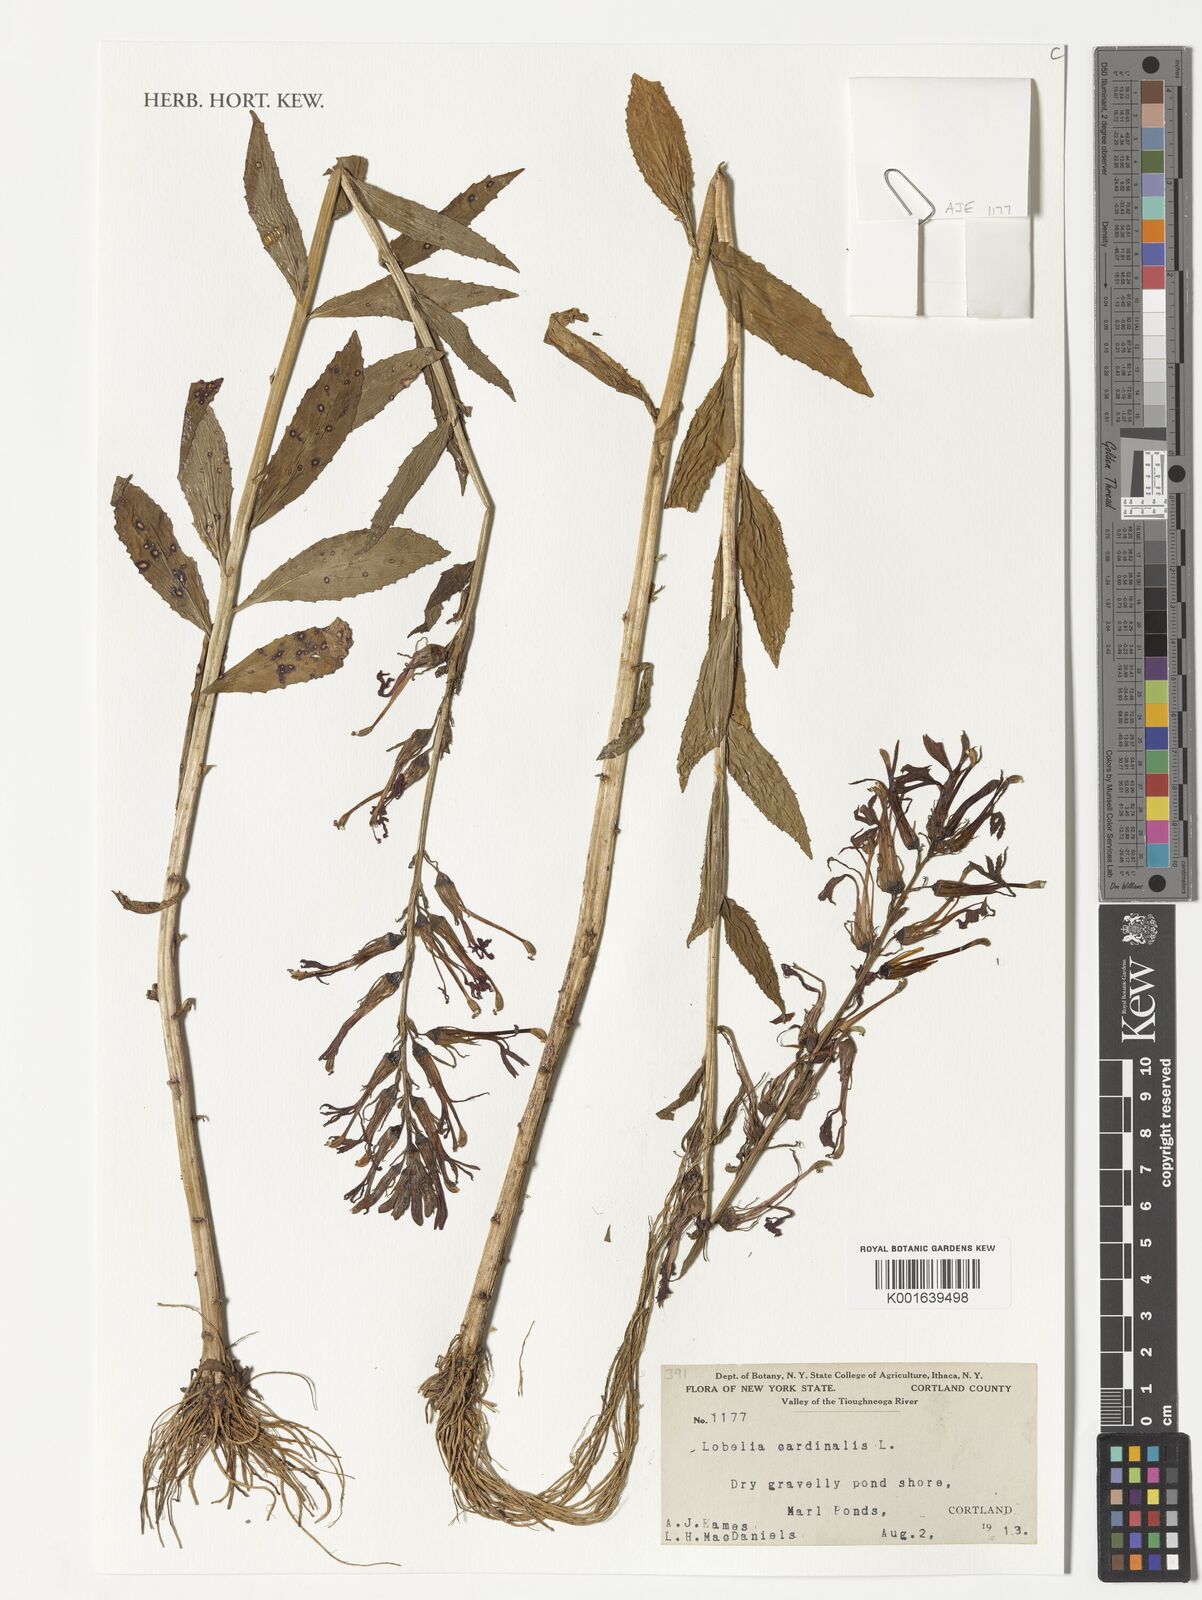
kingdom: Plantae
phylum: Tracheophyta
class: Magnoliopsida
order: Asterales
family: Campanulaceae
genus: Lobelia
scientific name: Lobelia cardinalis
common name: Cardinal flower
